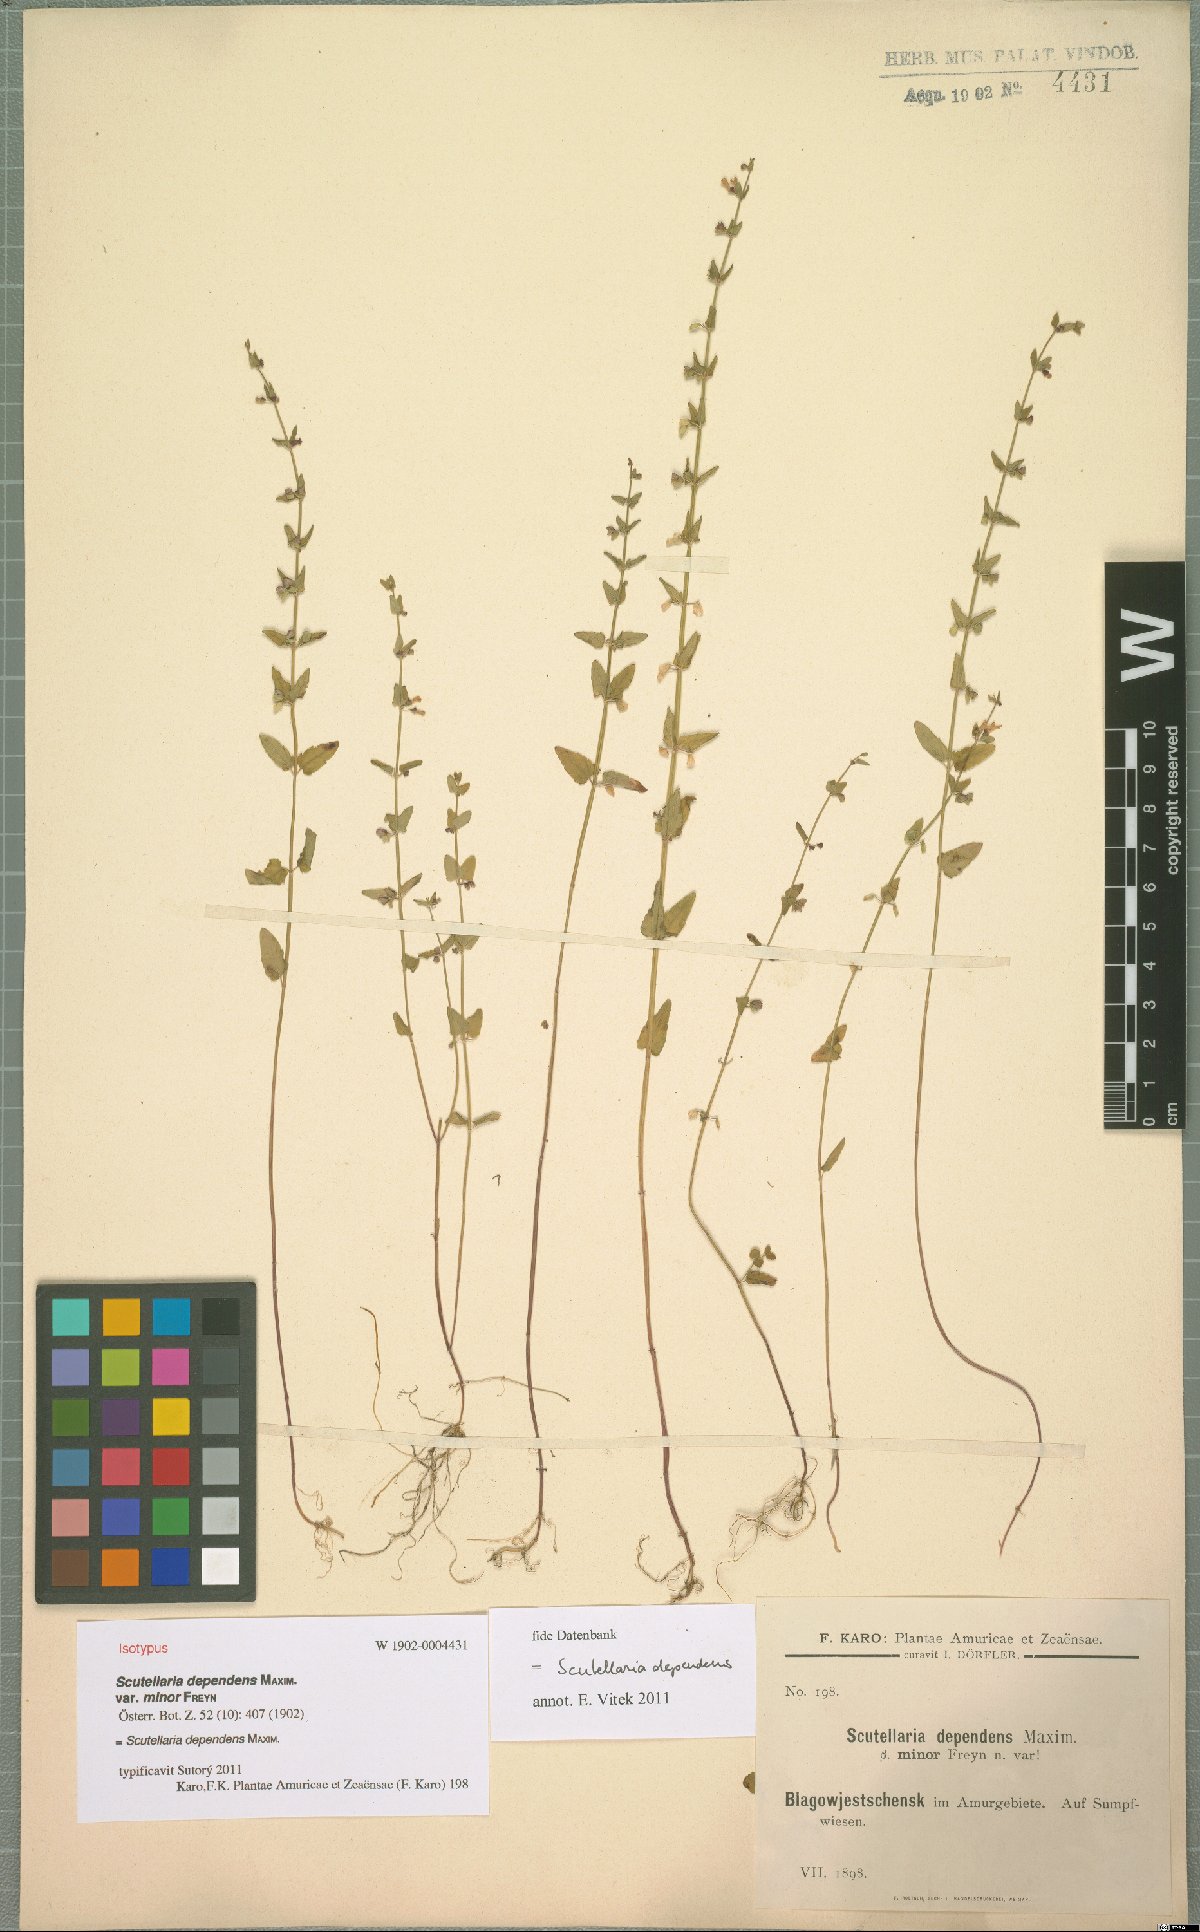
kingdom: Plantae
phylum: Tracheophyta
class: Magnoliopsida
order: Lamiales
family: Lamiaceae
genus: Scutellaria
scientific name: Scutellaria dependens
